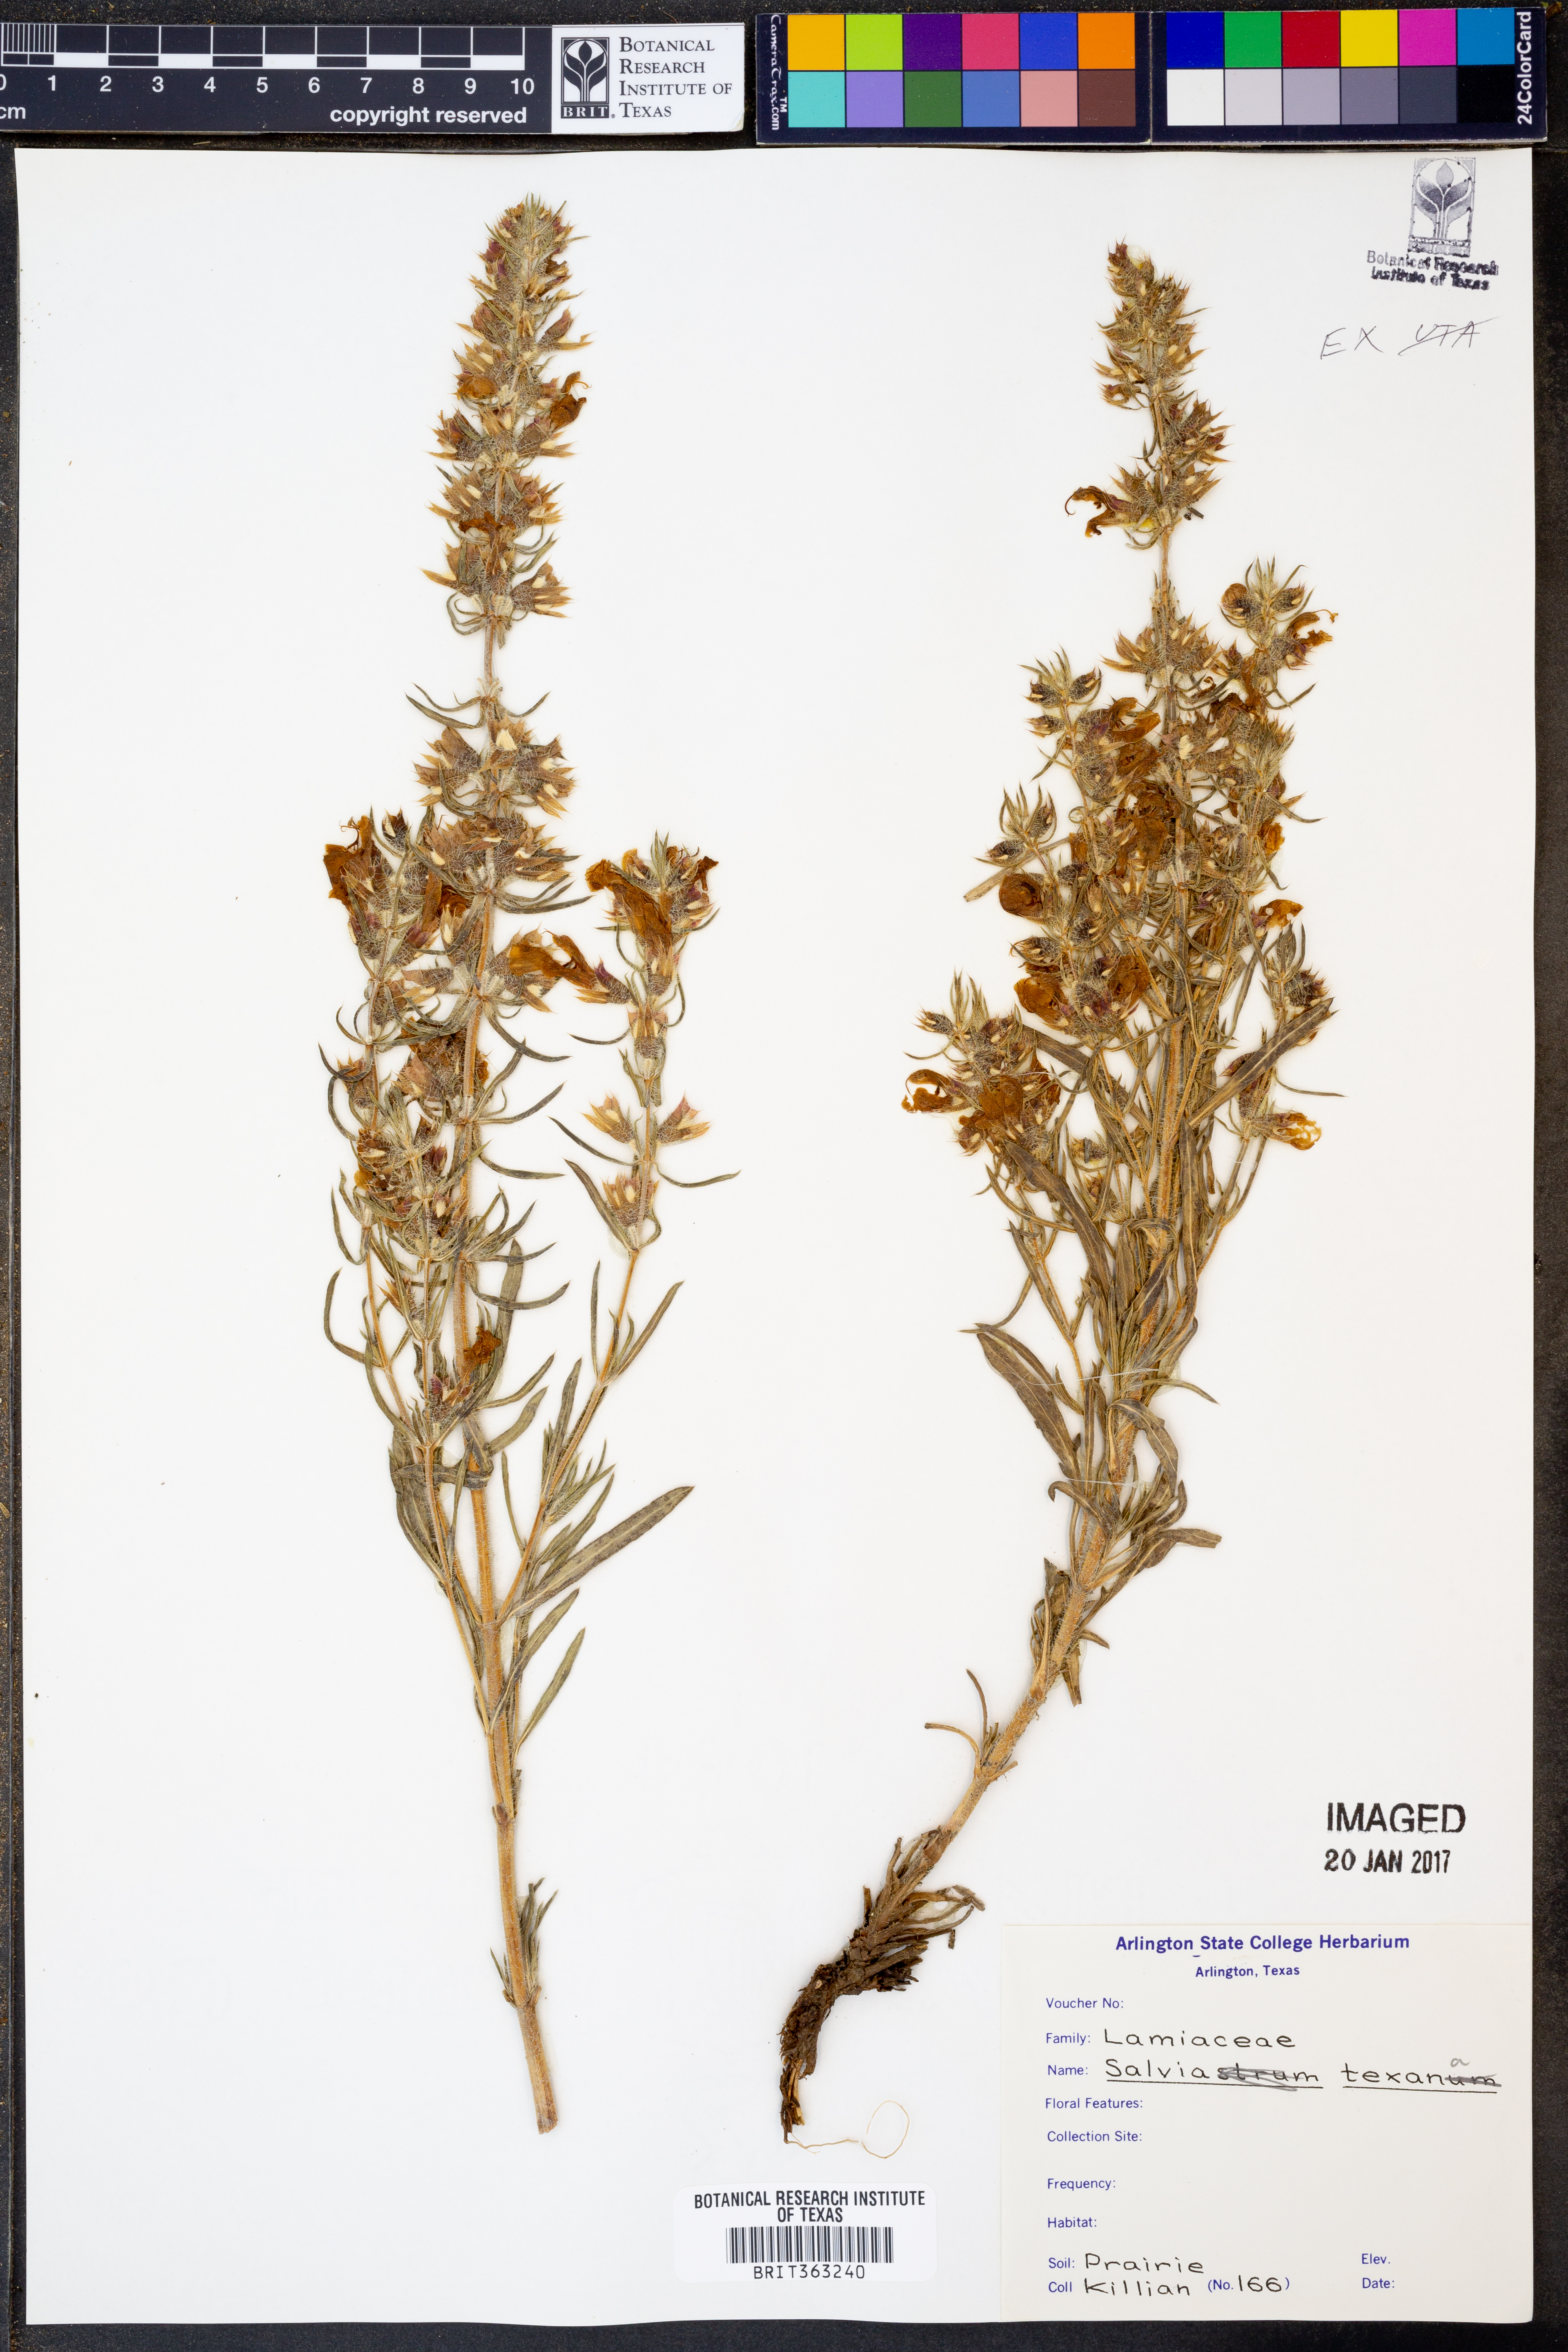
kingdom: Plantae
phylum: Tracheophyta
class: Magnoliopsida
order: Lamiales
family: Lamiaceae
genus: Salvia
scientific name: Salvia texana
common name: Texas sage
